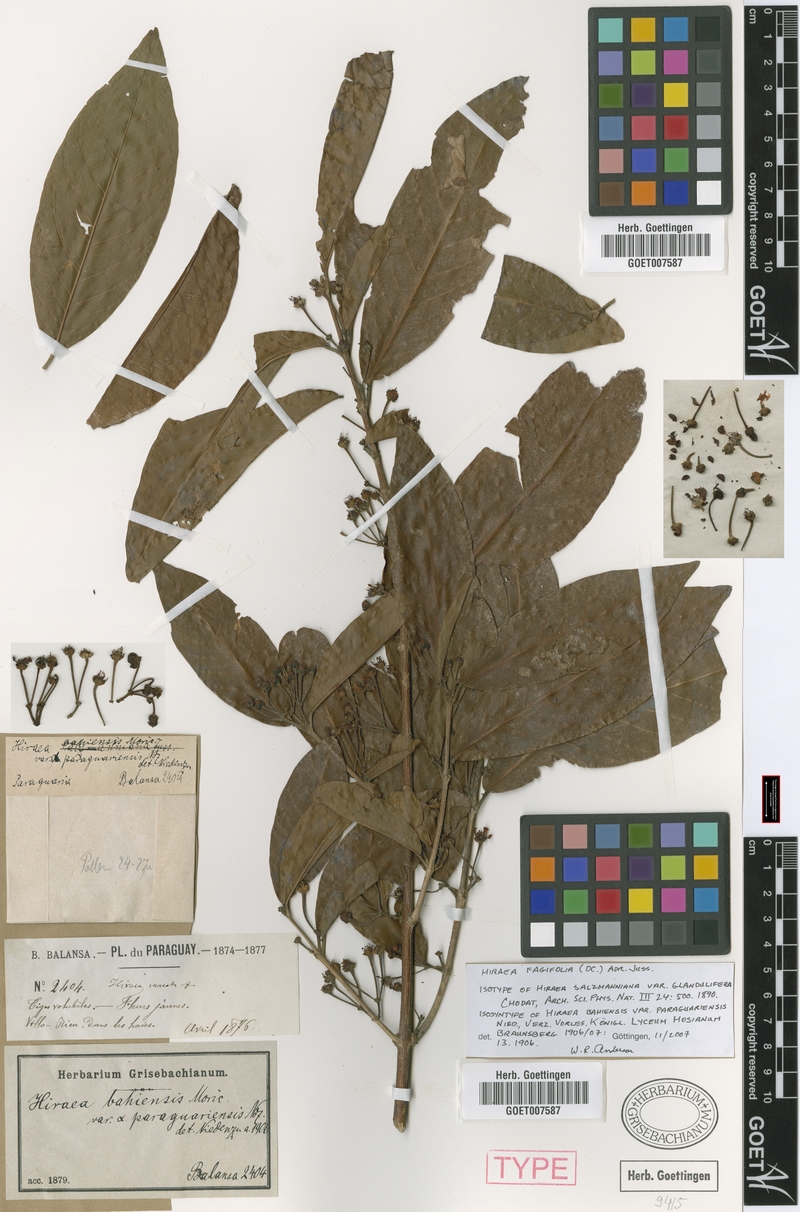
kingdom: Plantae
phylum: Tracheophyta
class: Magnoliopsida
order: Malpighiales
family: Malpighiaceae
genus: Hiraea
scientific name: Hiraea fagifolia
